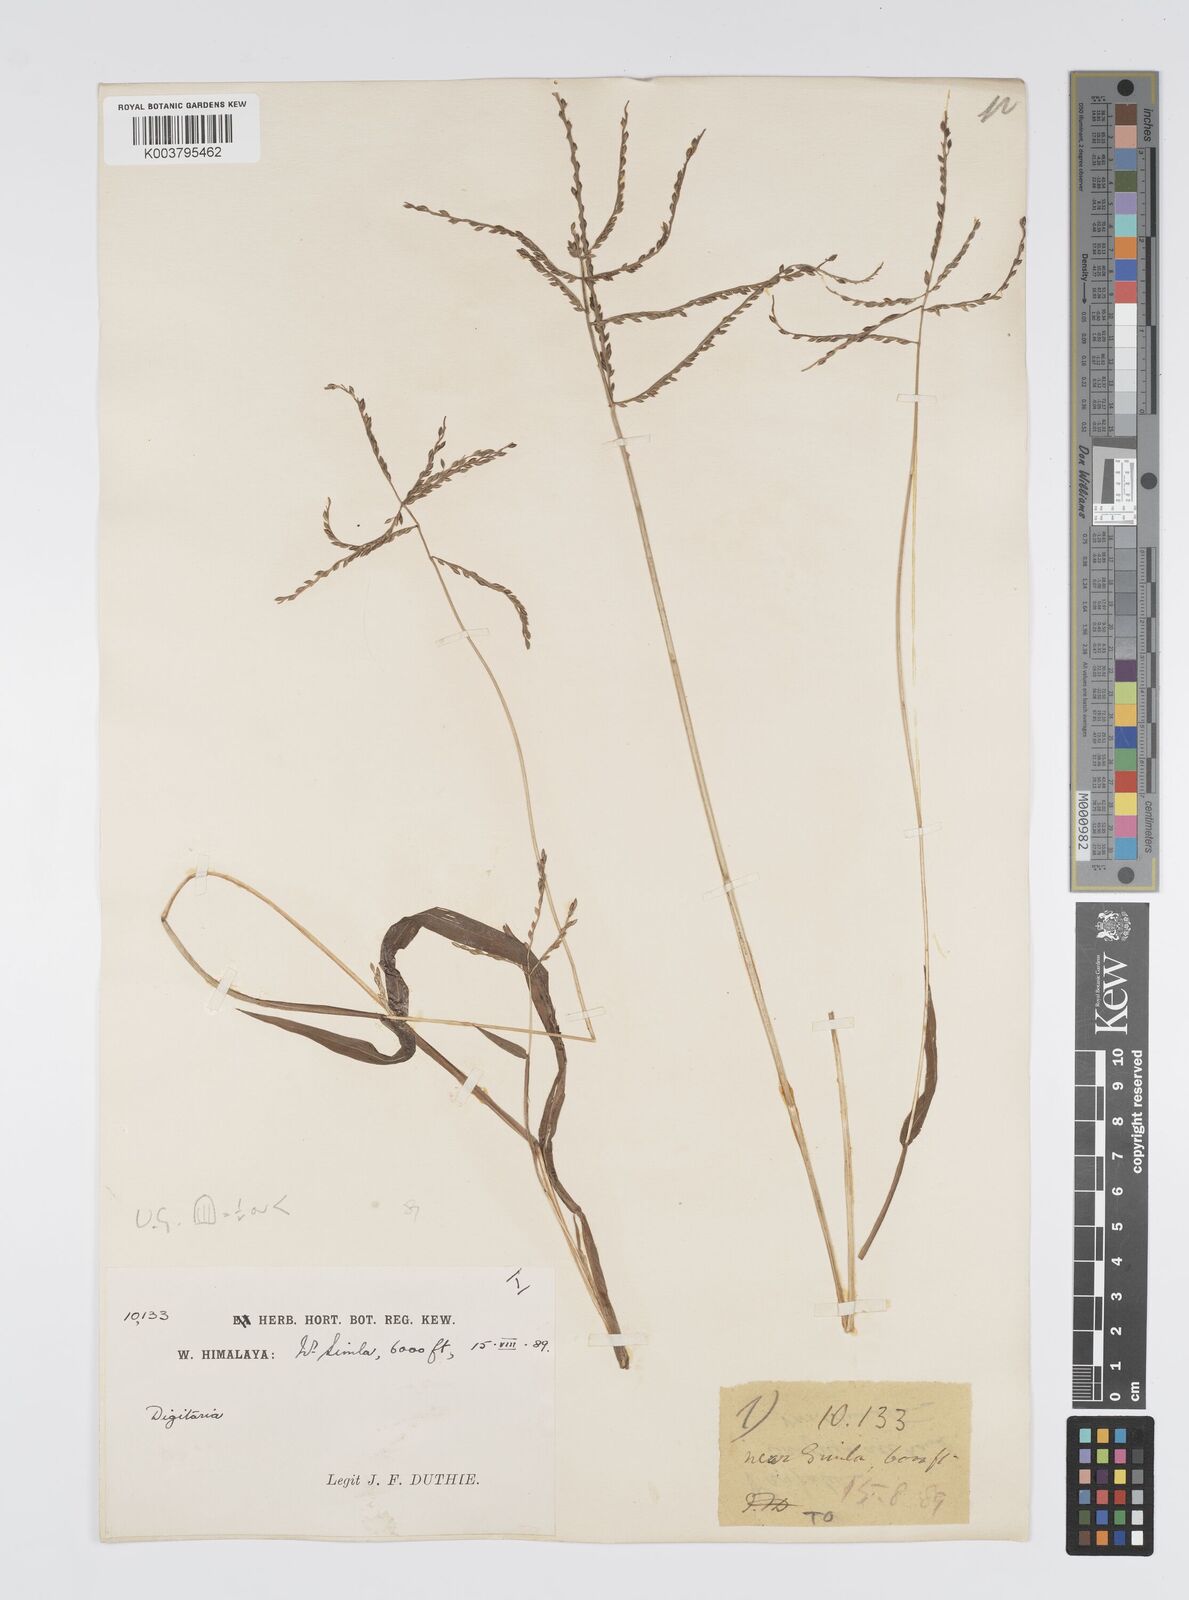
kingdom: Plantae
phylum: Tracheophyta
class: Liliopsida
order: Poales
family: Poaceae
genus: Digitaria
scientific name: Digitaria cruciata
